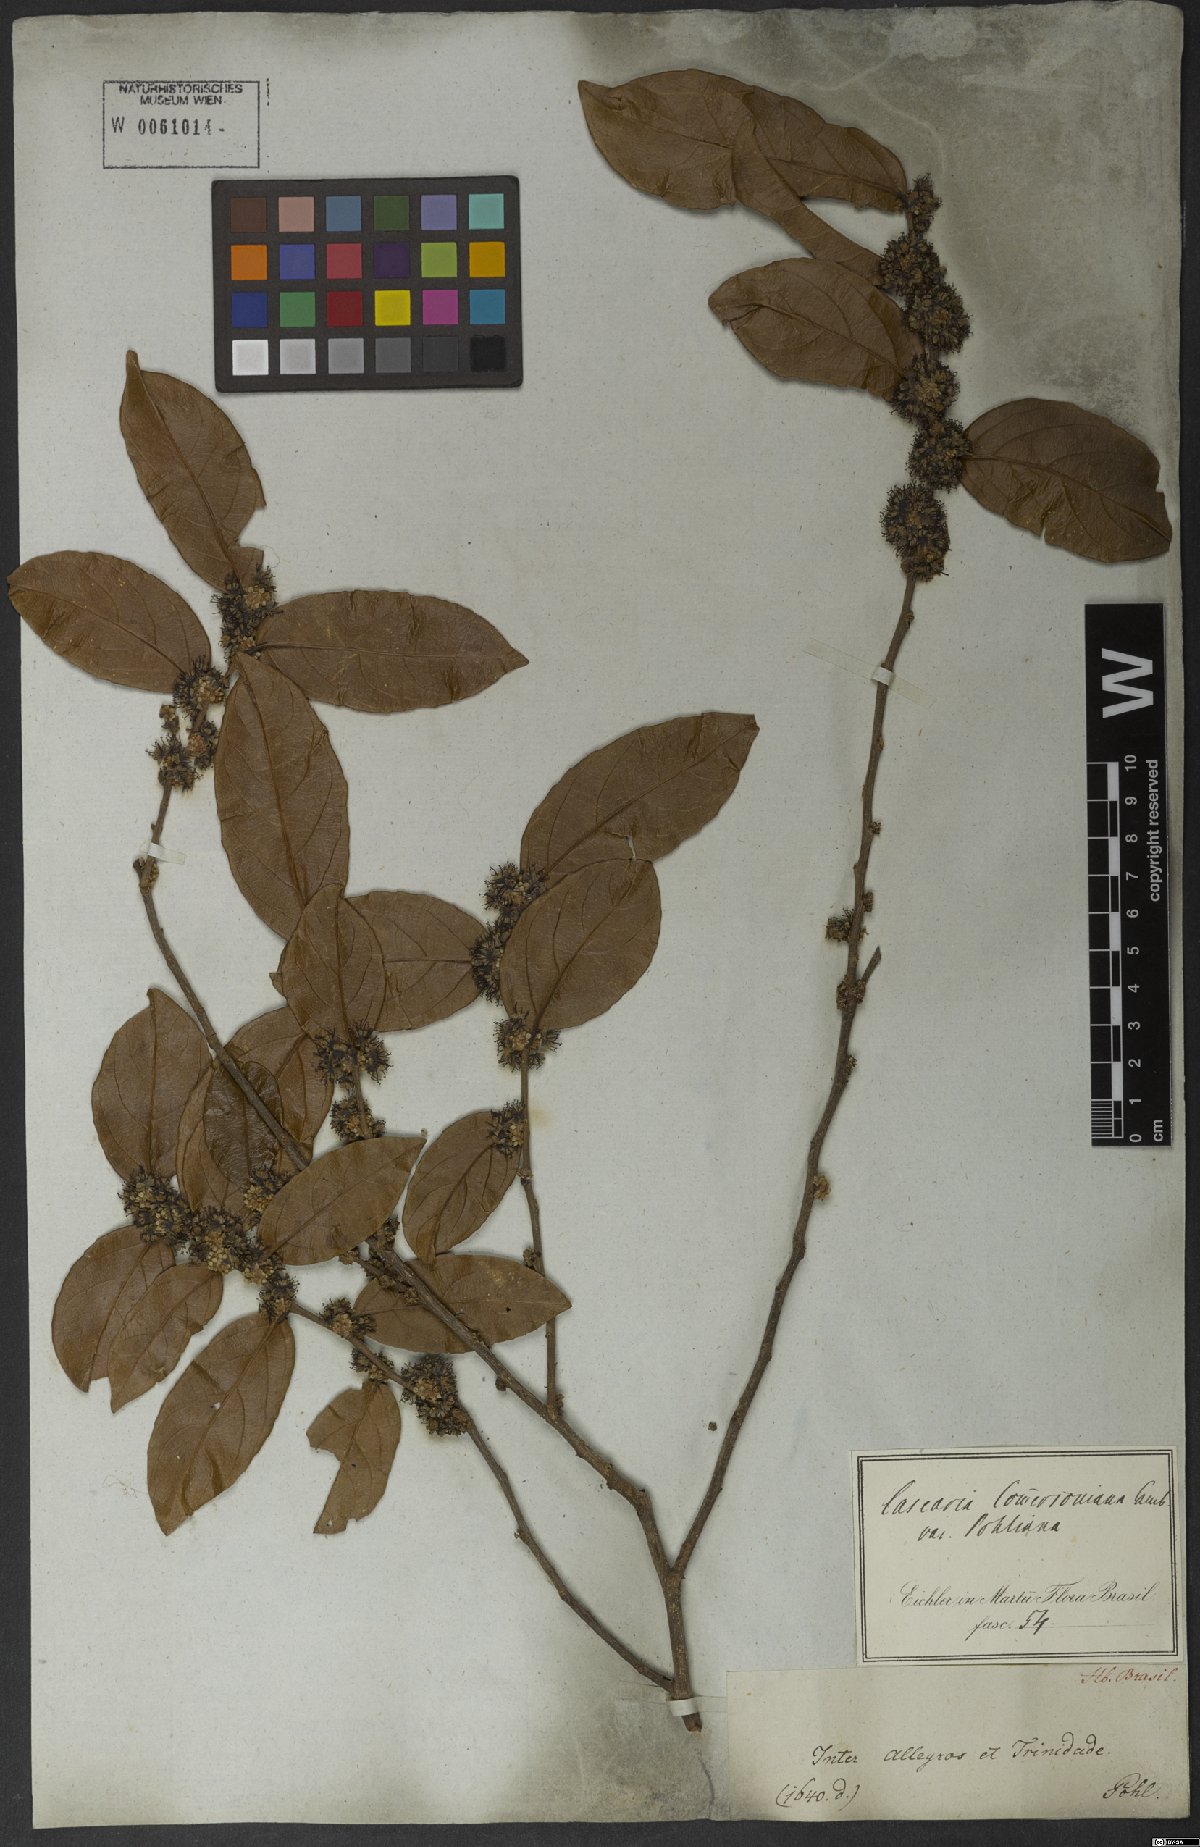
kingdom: Plantae
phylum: Tracheophyta
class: Magnoliopsida
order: Malpighiales
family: Salicaceae
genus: Piparea
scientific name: Piparea dentata
